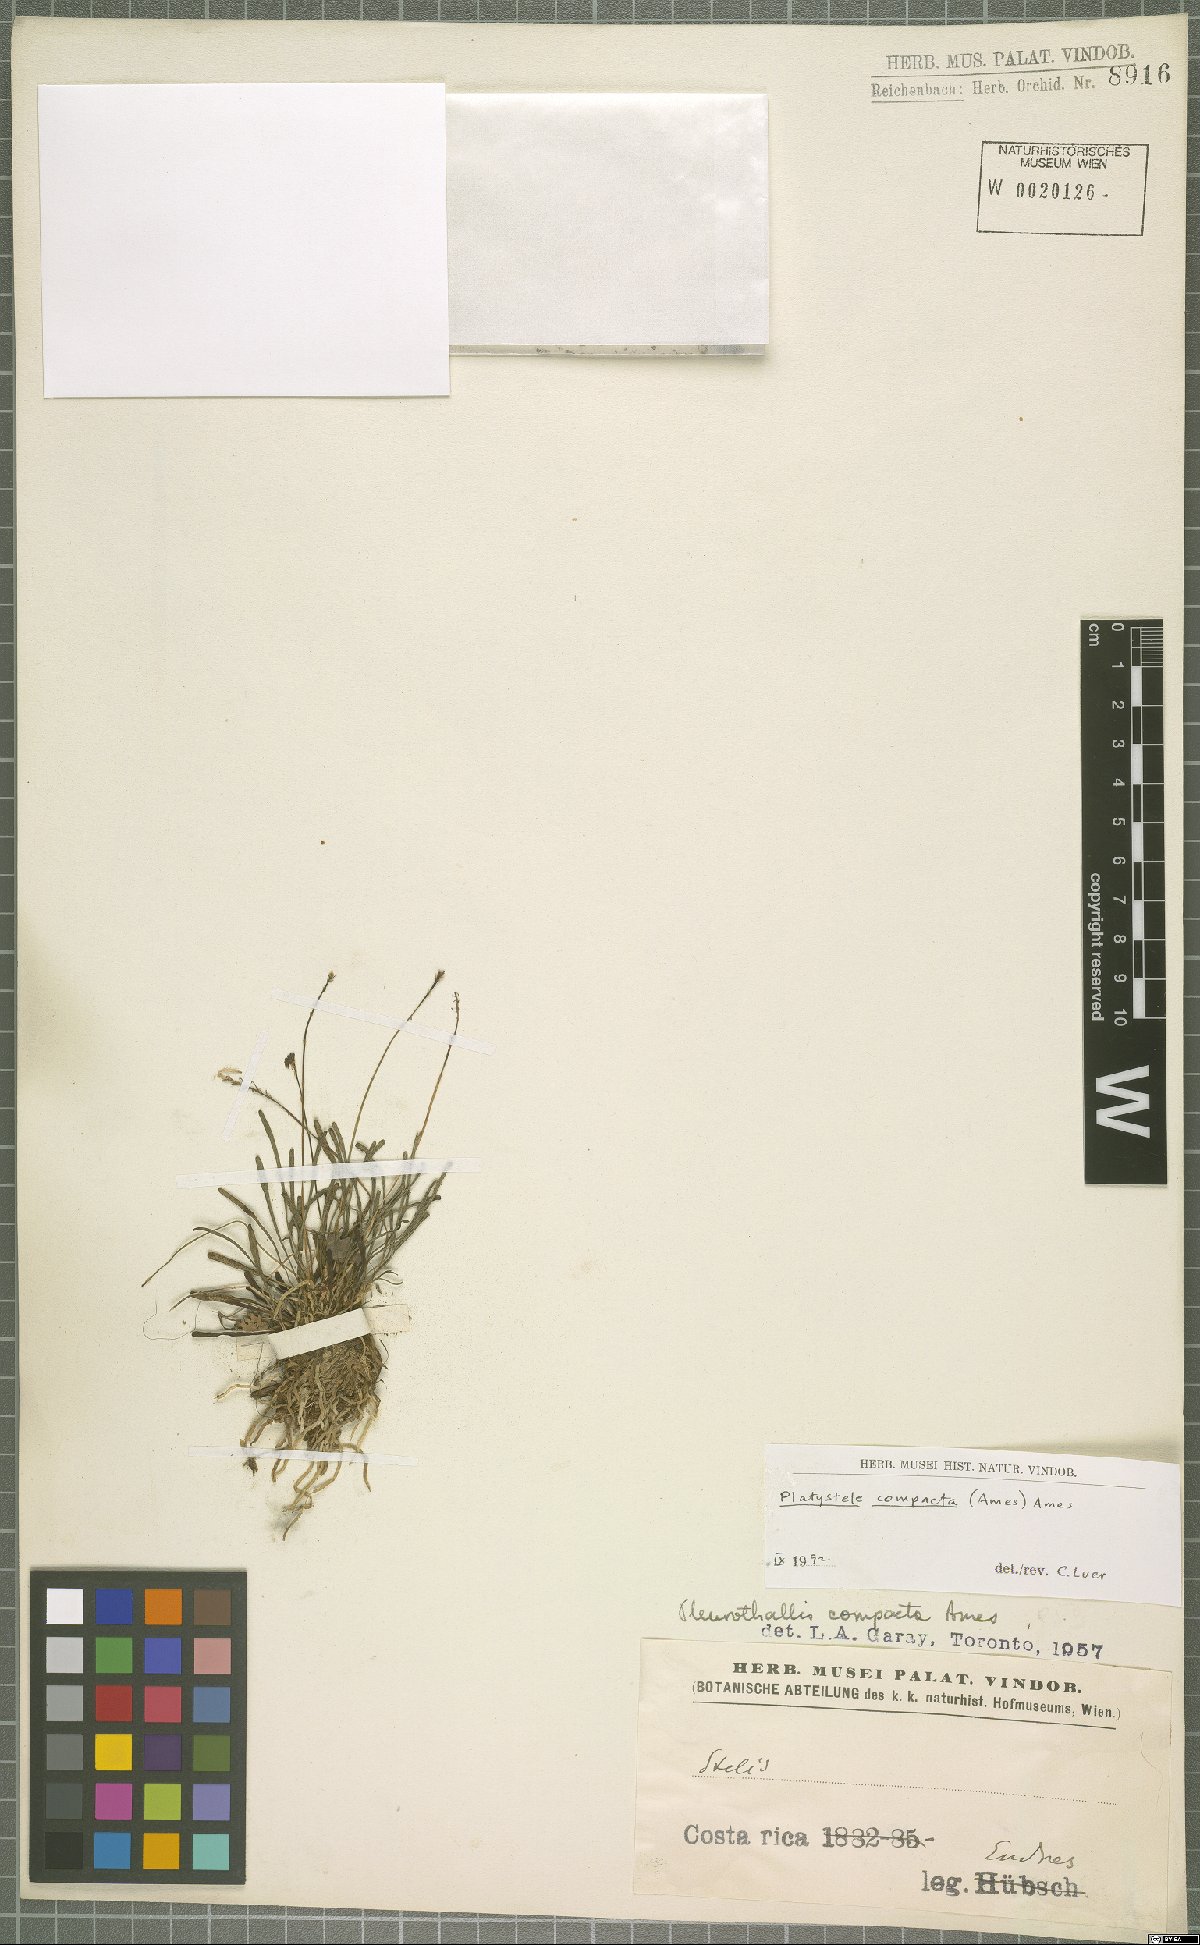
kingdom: Plantae
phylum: Tracheophyta
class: Liliopsida
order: Asparagales
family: Orchidaceae
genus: Platystele
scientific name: Platystele compacta
